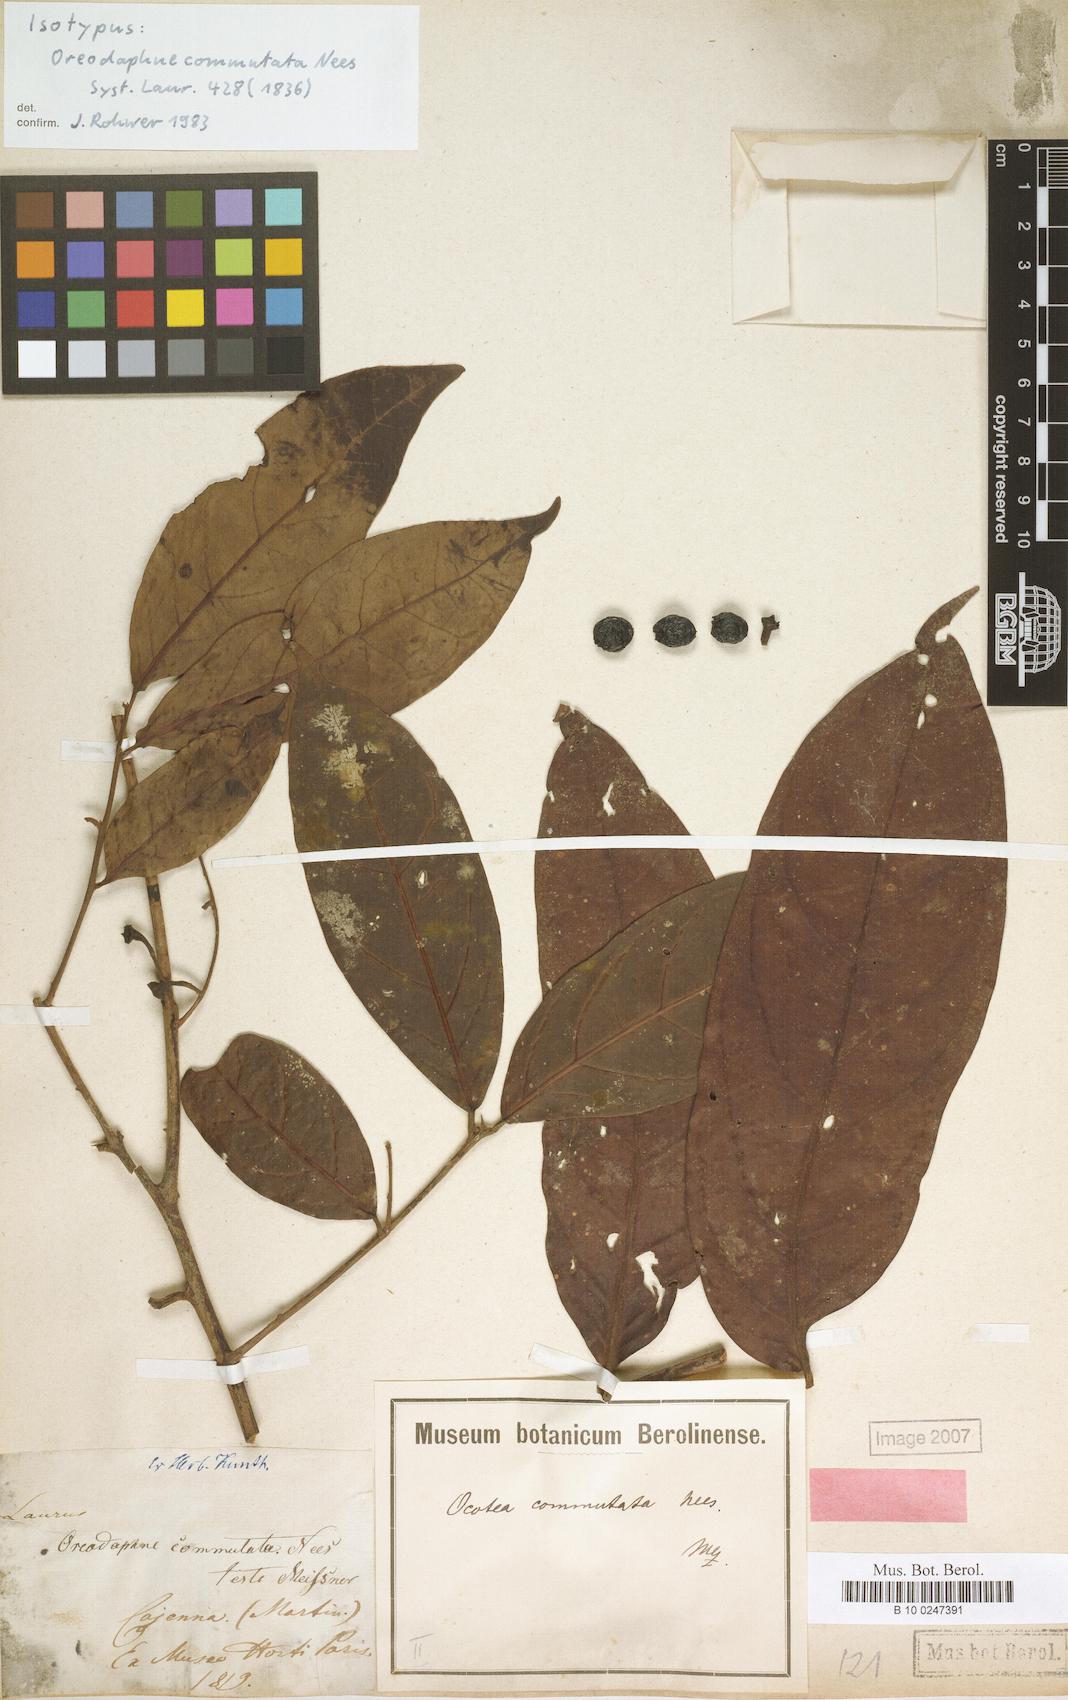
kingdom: Plantae
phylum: Tracheophyta
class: Magnoliopsida
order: Laurales
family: Lauraceae
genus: Ocotea
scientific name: Ocotea commutata
